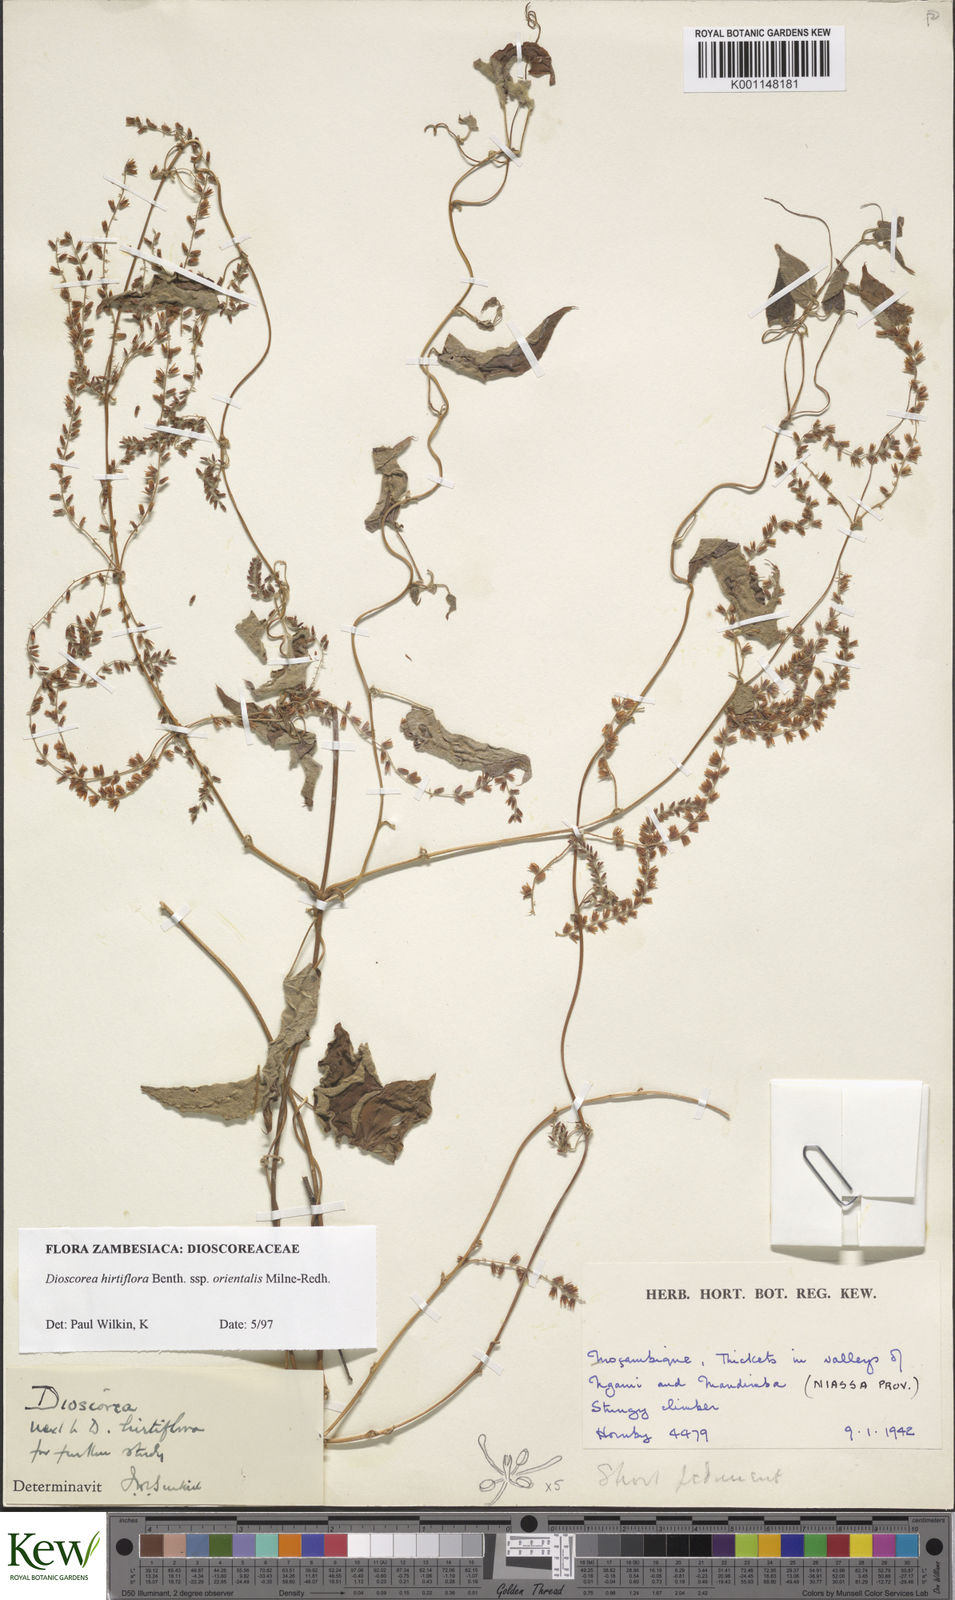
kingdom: Plantae
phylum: Tracheophyta
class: Liliopsida
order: Dioscoreales
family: Dioscoreaceae
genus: Dioscorea
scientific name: Dioscorea hirtiflora
